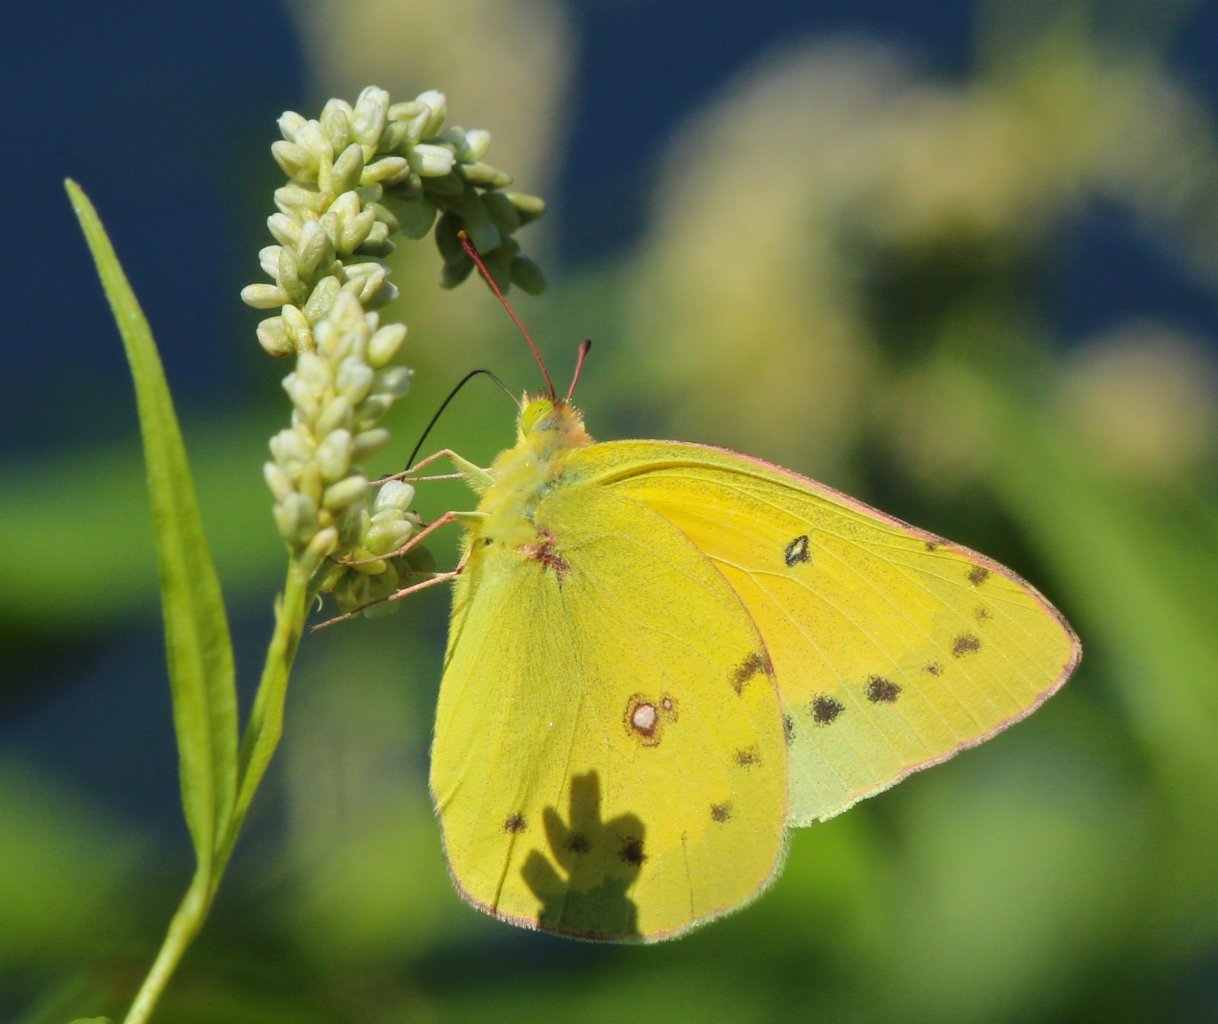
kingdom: Animalia
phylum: Arthropoda
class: Insecta
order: Lepidoptera
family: Pieridae
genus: Colias
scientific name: Colias eurytheme
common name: Orange Sulphur
